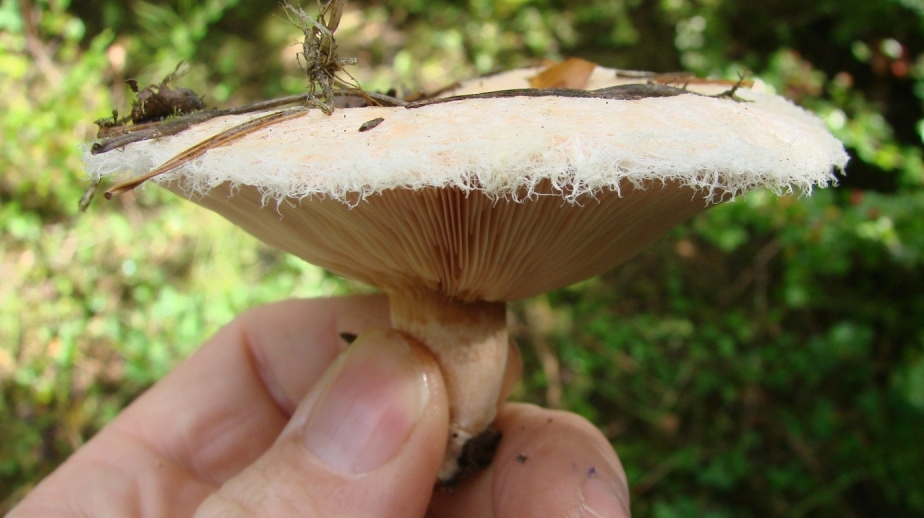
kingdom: Fungi
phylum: Basidiomycota
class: Agaricomycetes
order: Russulales
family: Russulaceae
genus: Lactarius
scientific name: Lactarius pubescens
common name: dunet mælkehat
